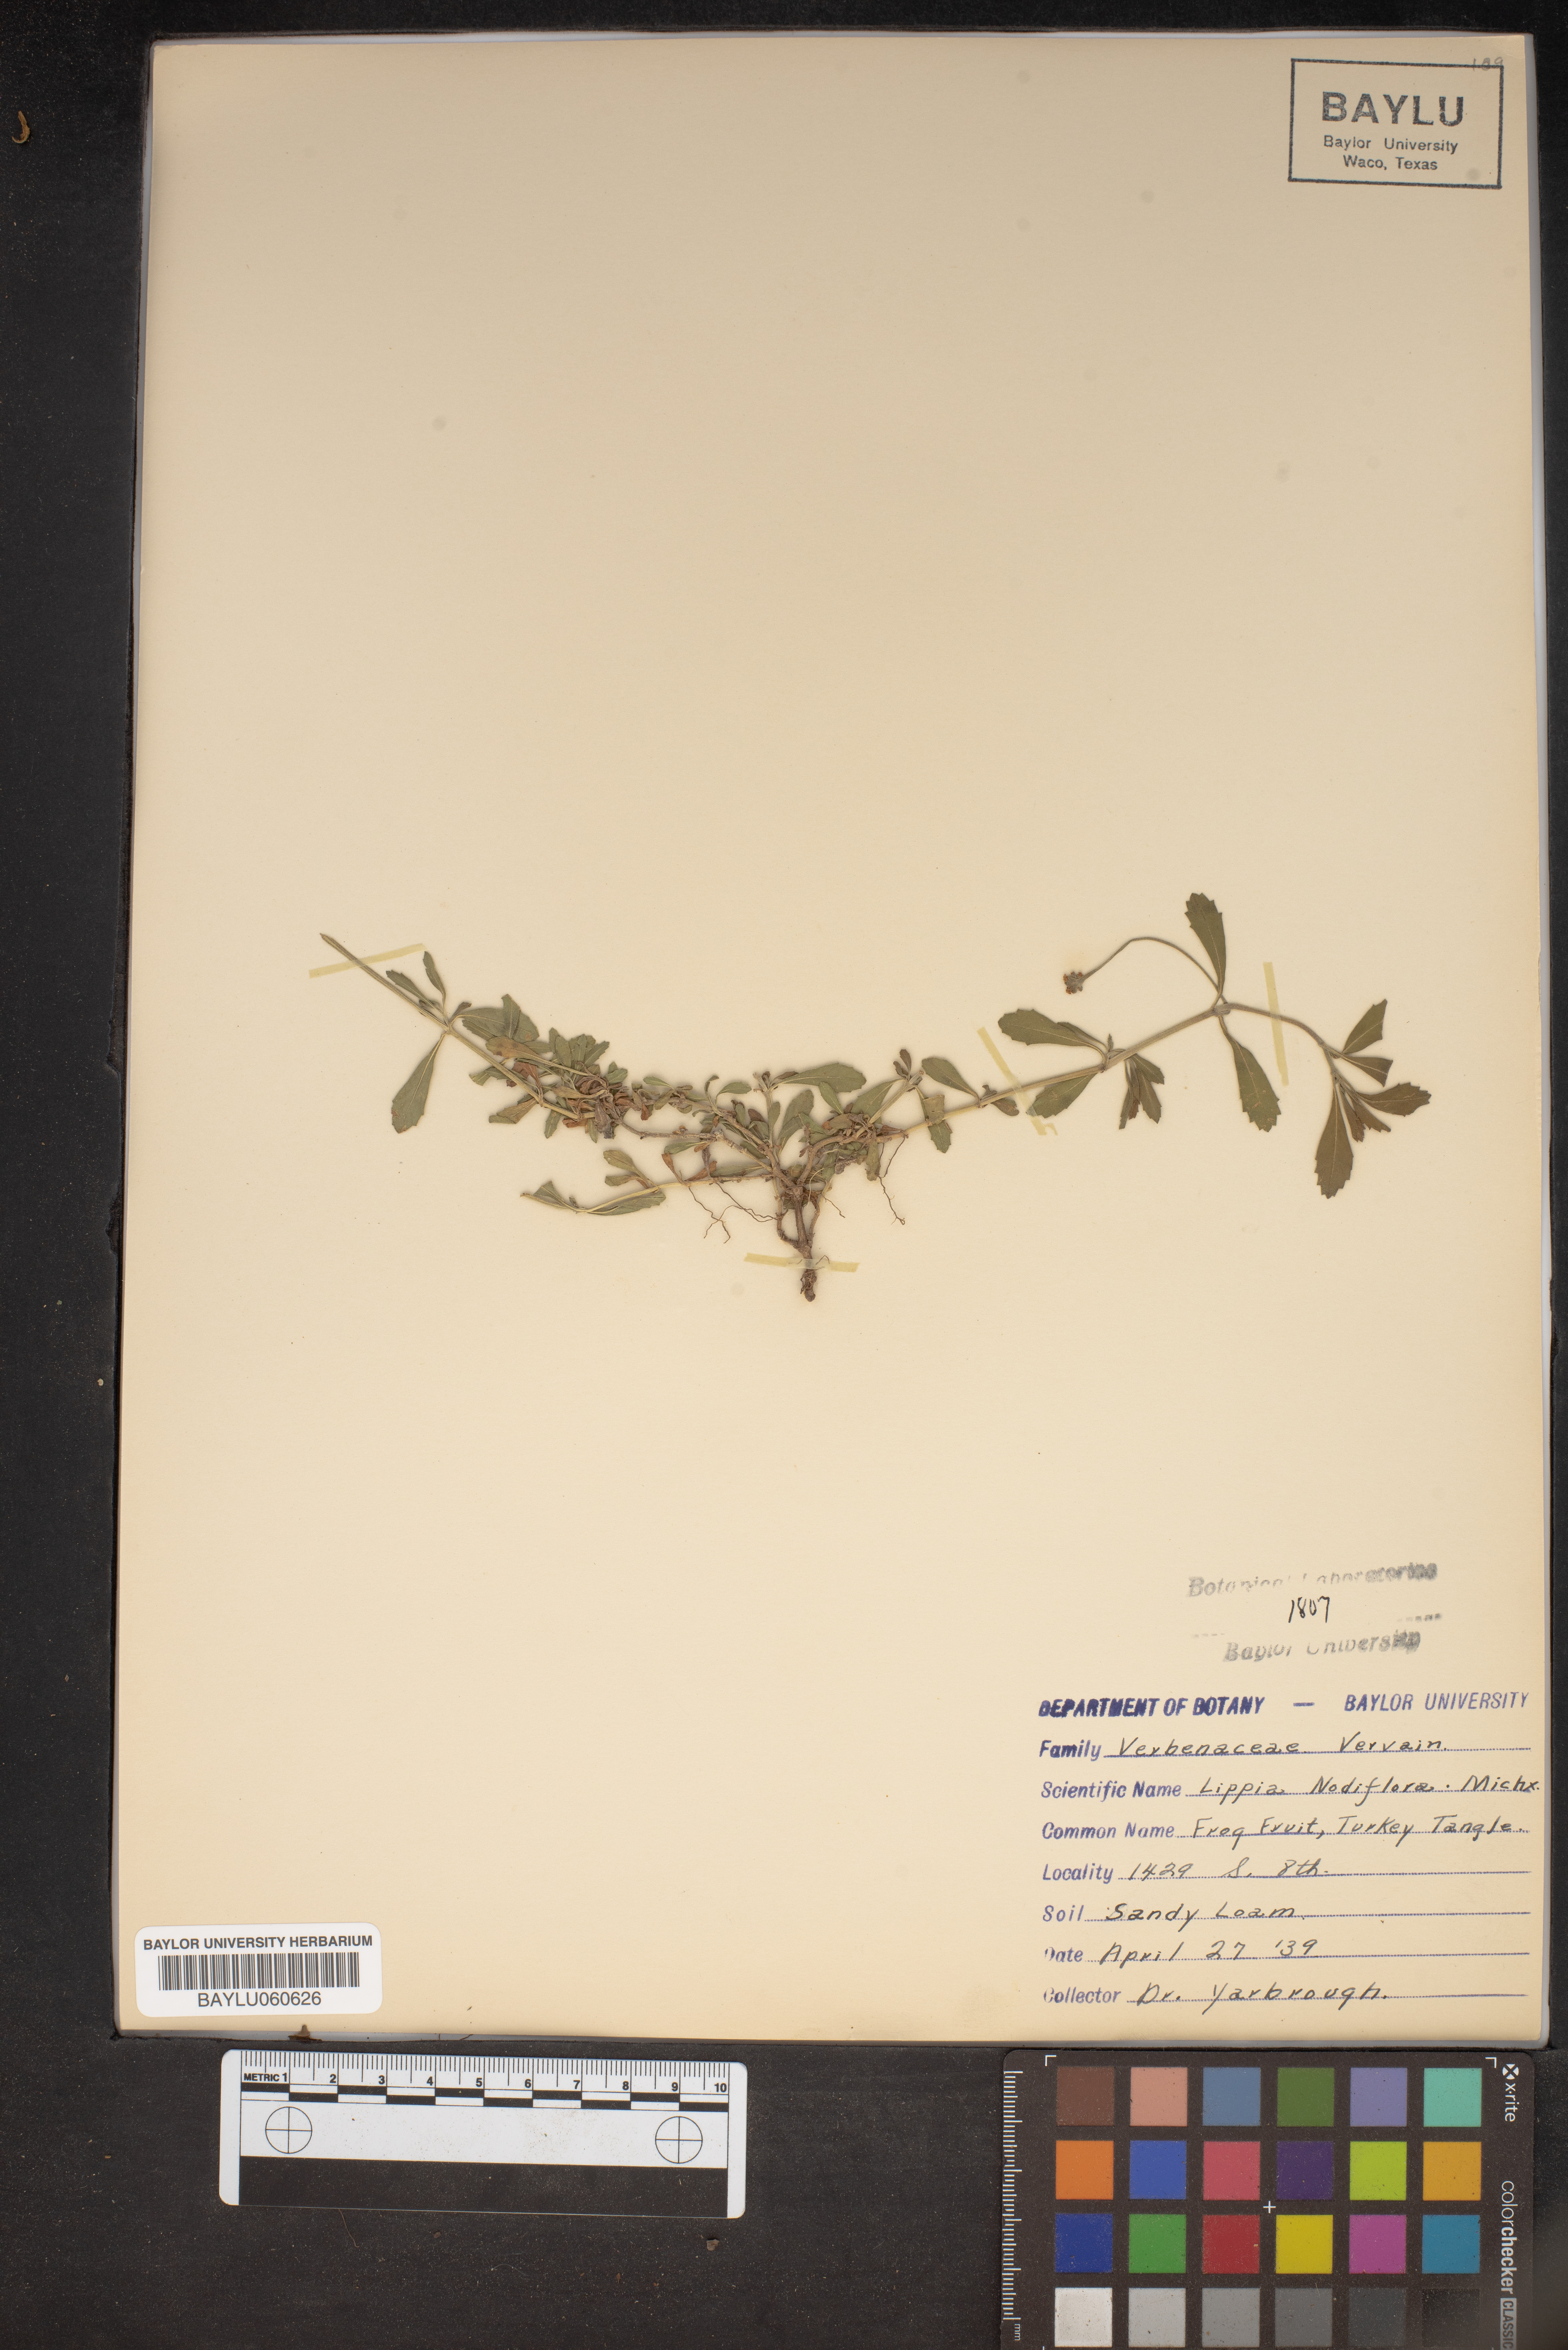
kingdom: Plantae
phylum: Tracheophyta
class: Magnoliopsida
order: Lamiales
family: Verbenaceae
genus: Phyla
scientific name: Phyla nodiflora
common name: Frogfruit
